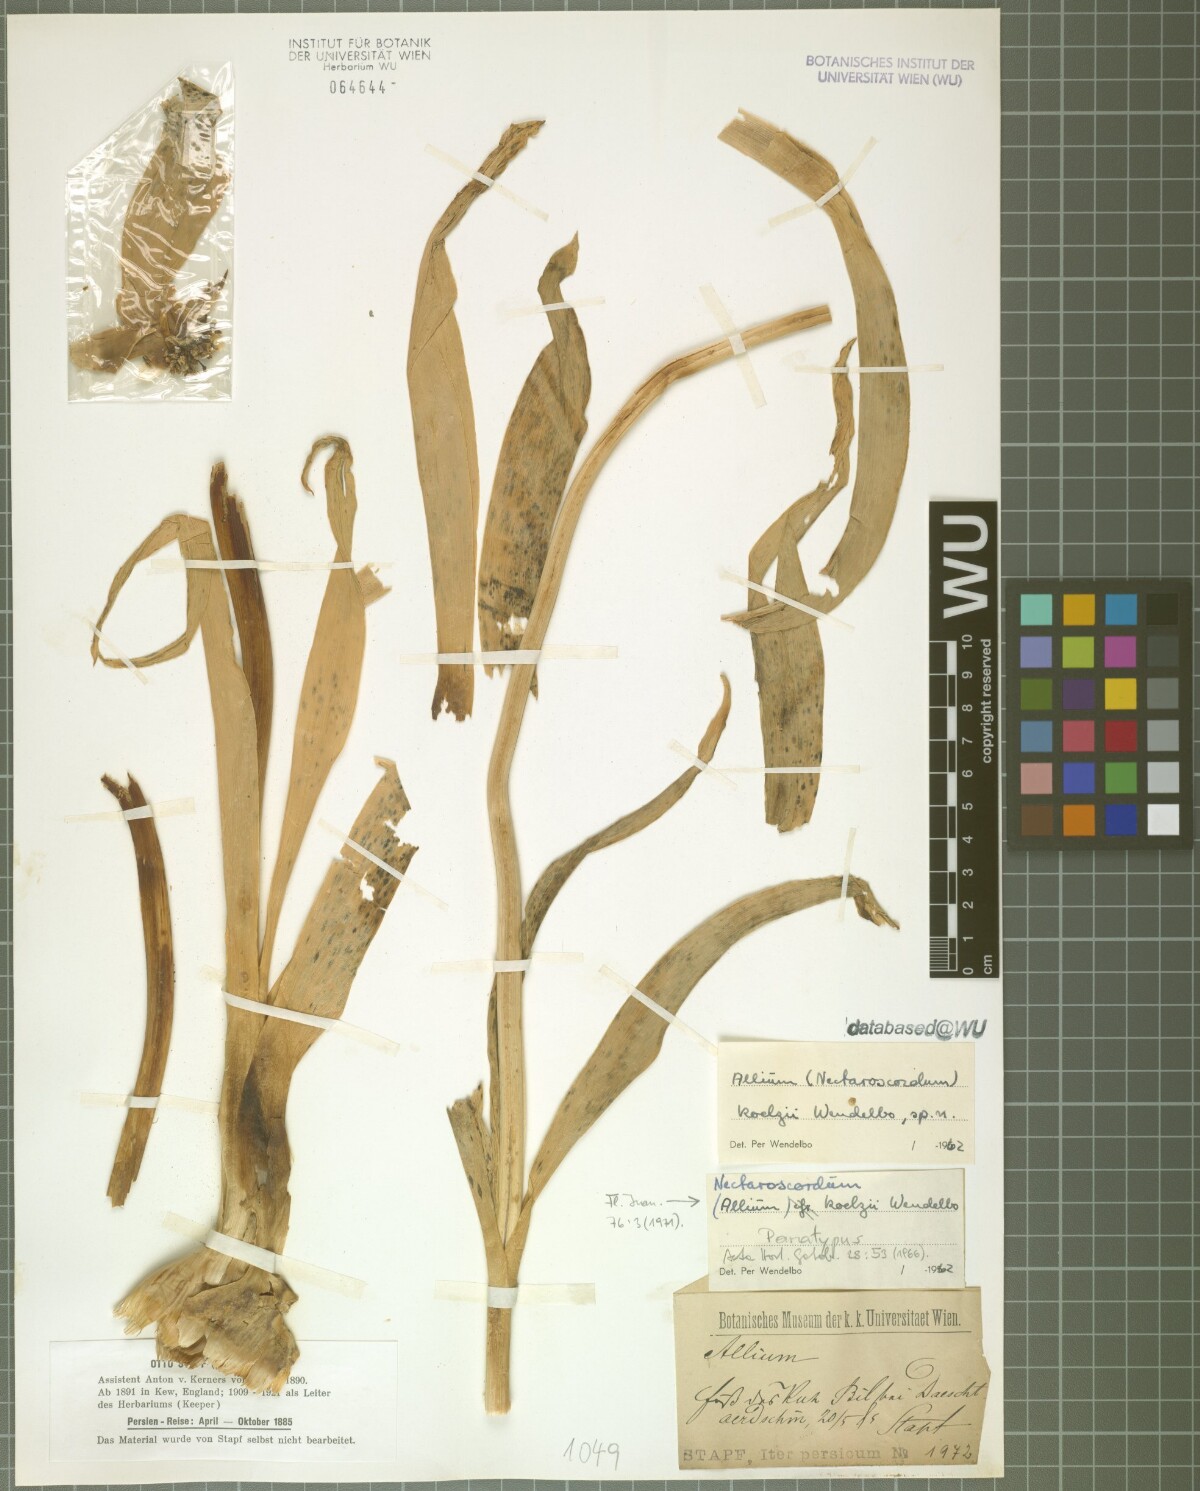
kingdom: Plantae
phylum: Tracheophyta
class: Liliopsida
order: Asparagales
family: Amaryllidaceae
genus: Allium
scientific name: Allium koelzii
